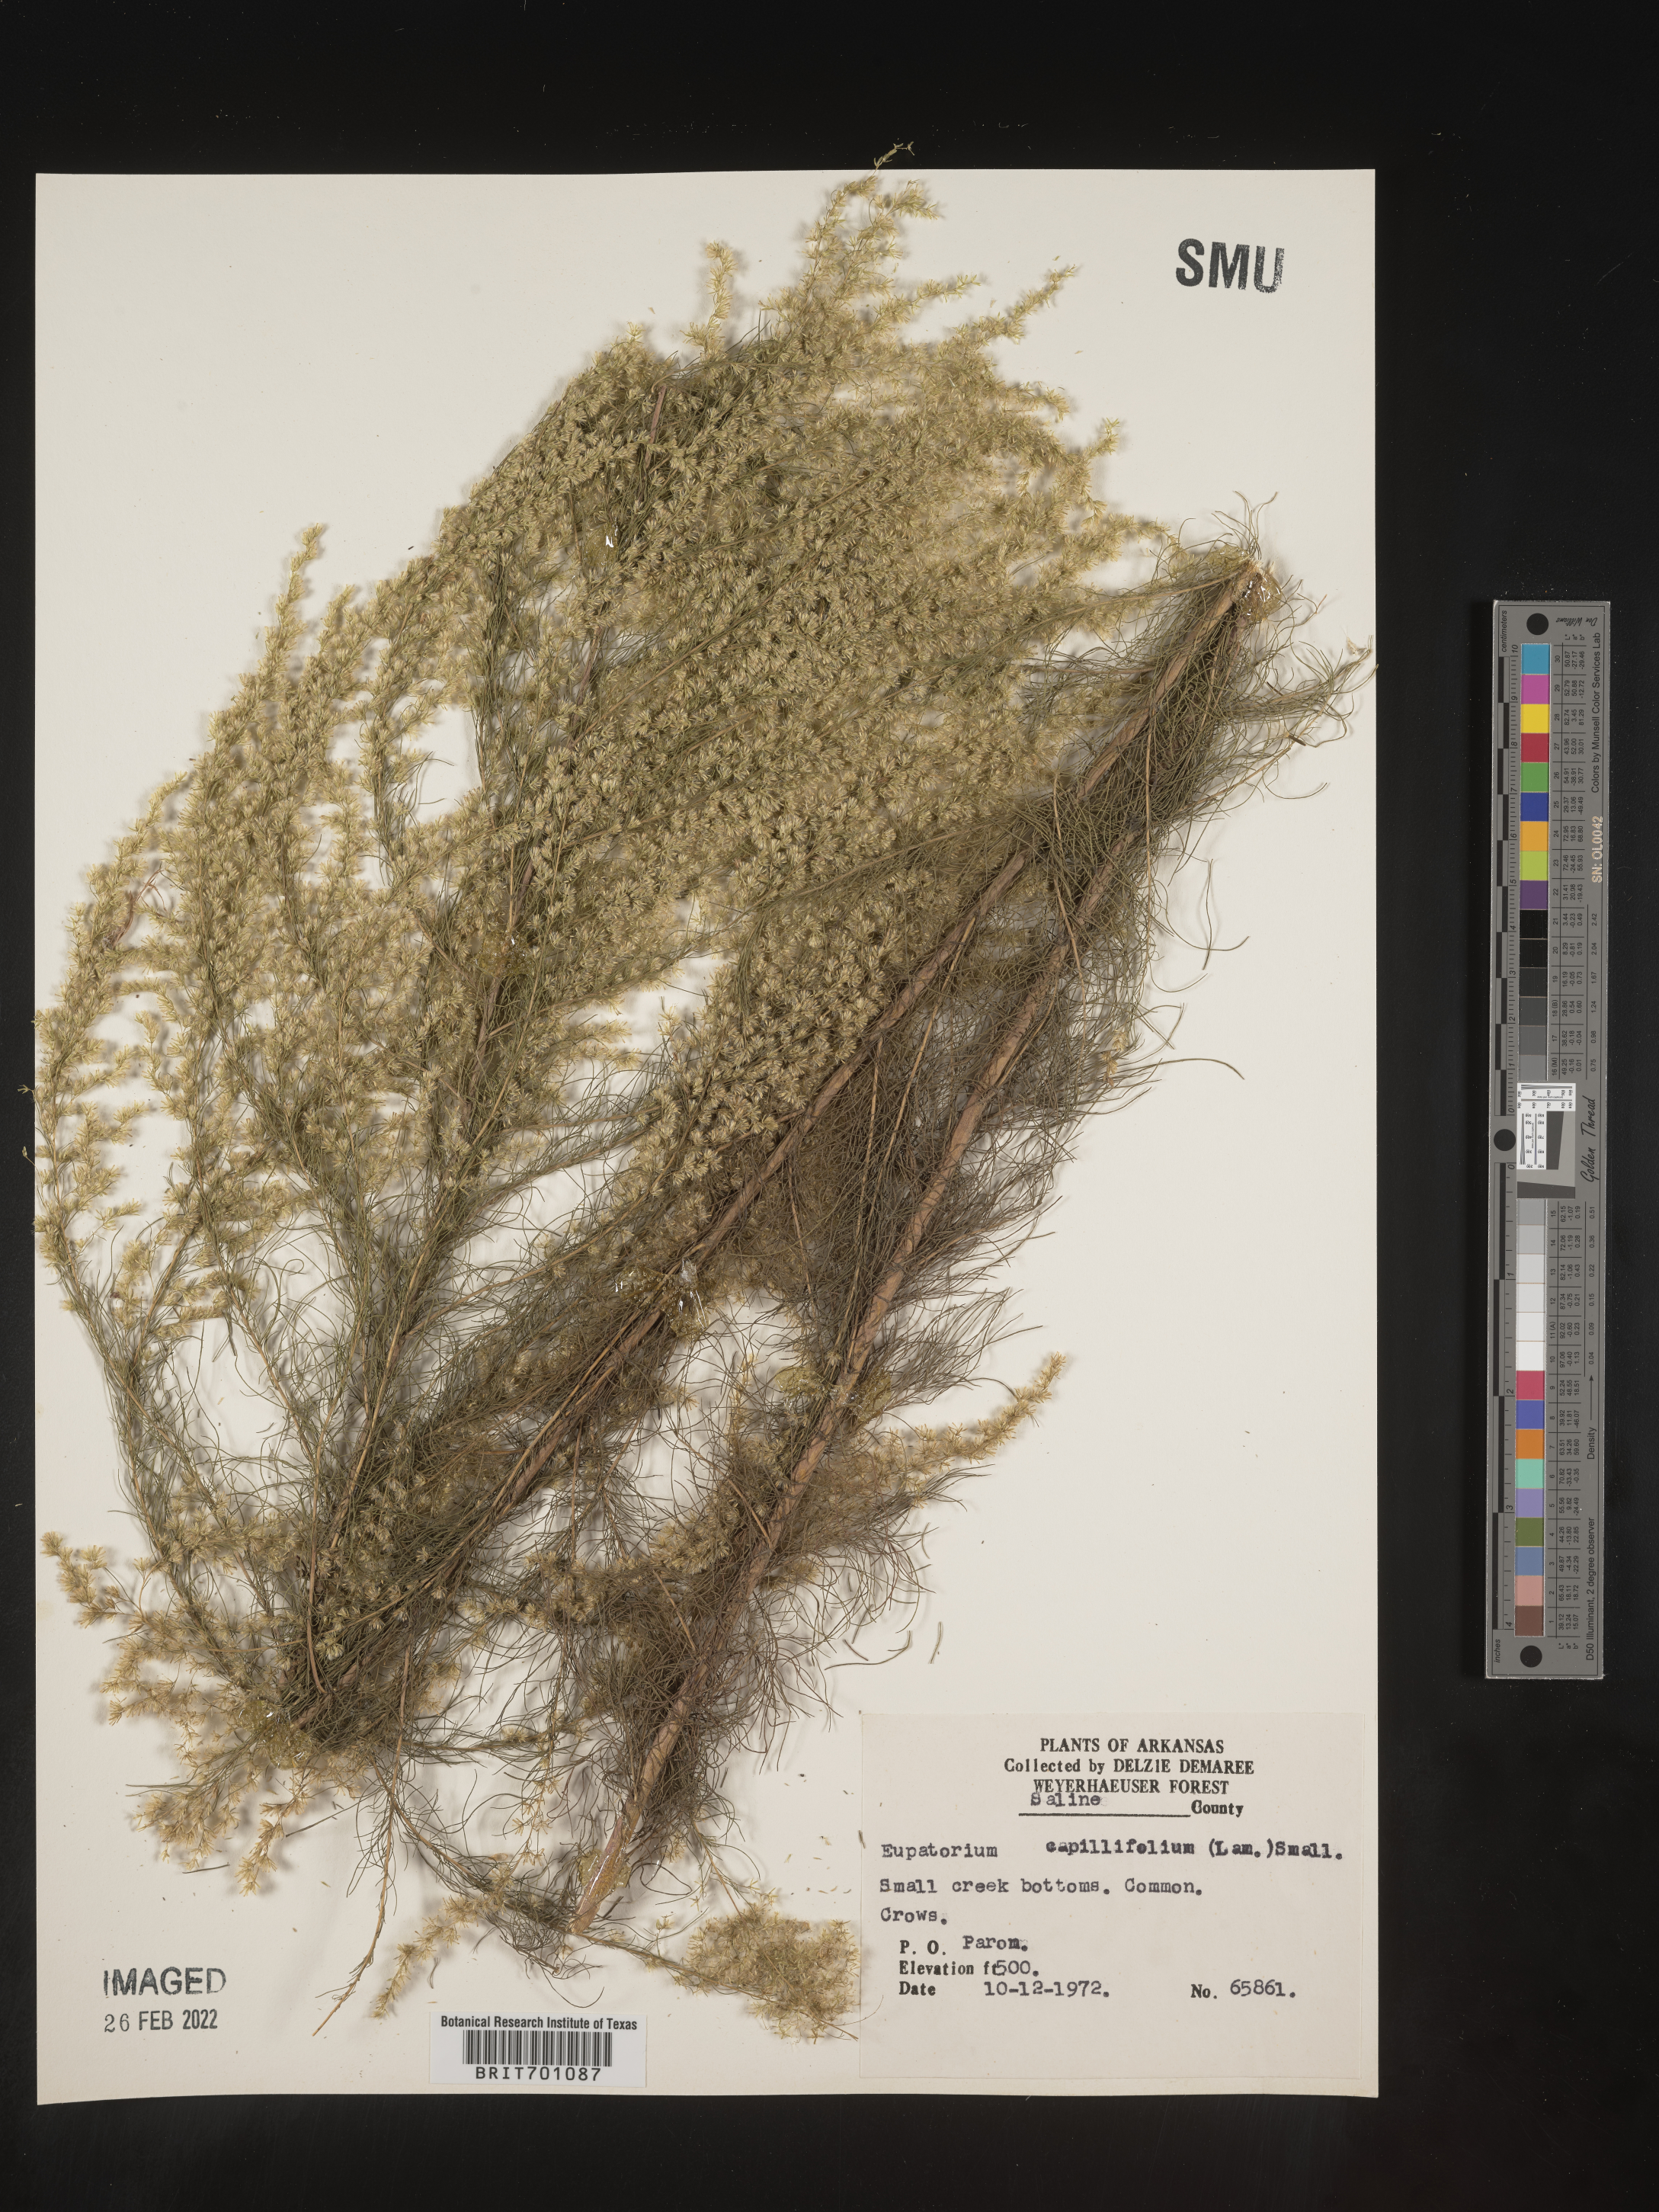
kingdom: Plantae
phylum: Tracheophyta
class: Magnoliopsida
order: Asterales
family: Asteraceae
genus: Eupatorium
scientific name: Eupatorium capillifolium
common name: Dog-fennel
